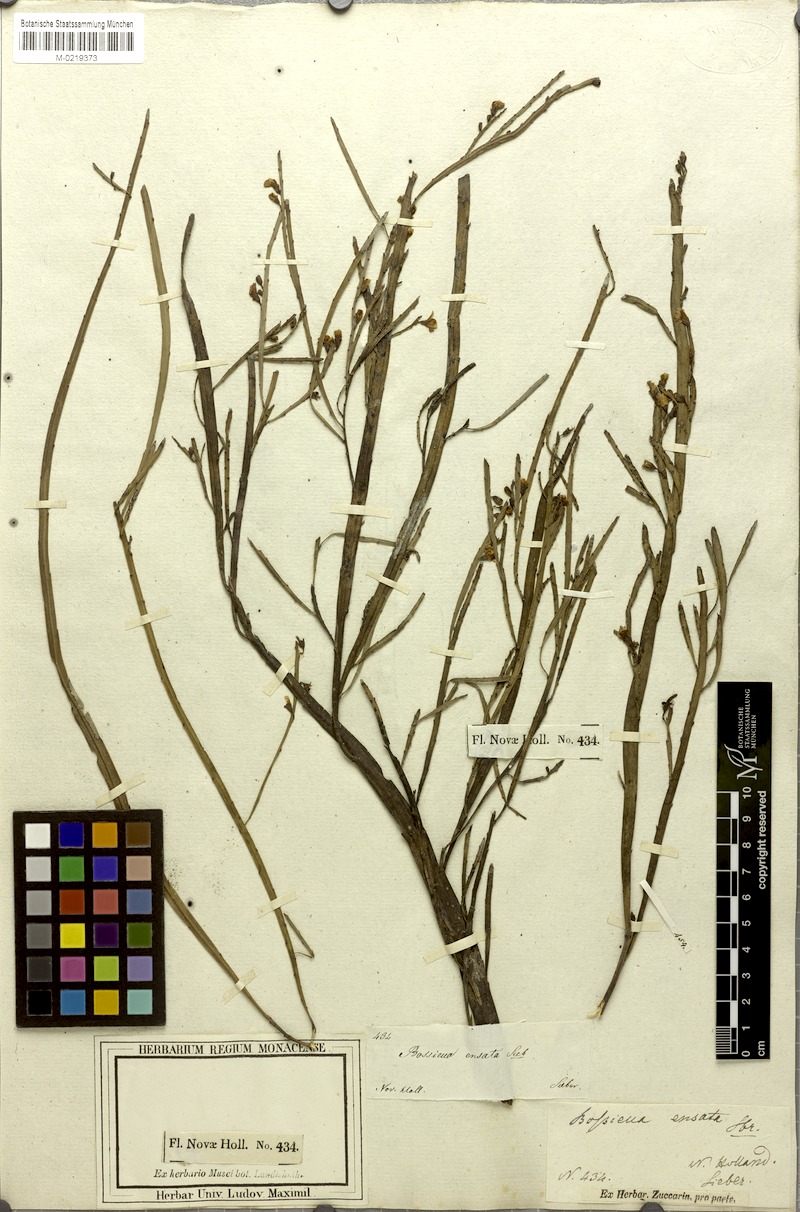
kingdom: Plantae
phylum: Tracheophyta
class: Magnoliopsida
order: Fabales
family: Fabaceae
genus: Bossiaea
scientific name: Bossiaea ensata
